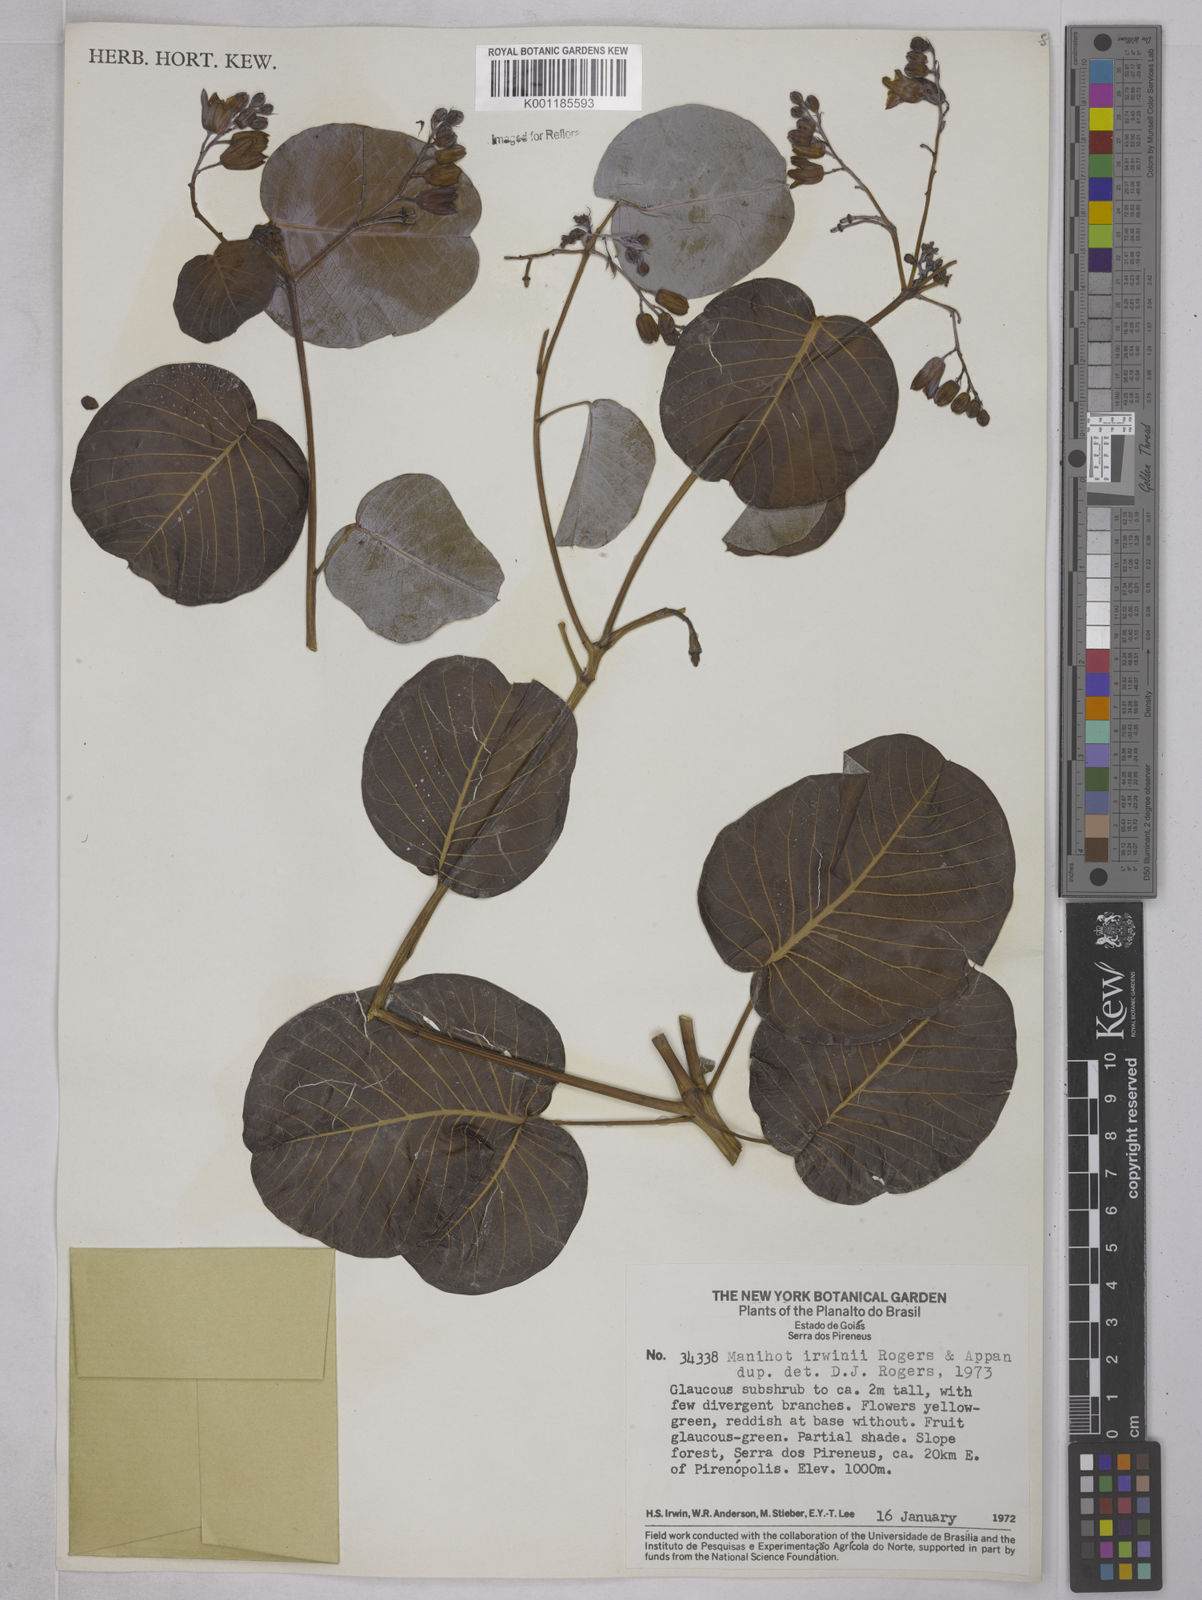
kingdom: Plantae
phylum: Tracheophyta
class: Magnoliopsida
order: Malpighiales
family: Euphorbiaceae
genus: Manihot
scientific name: Manihot irwinii
